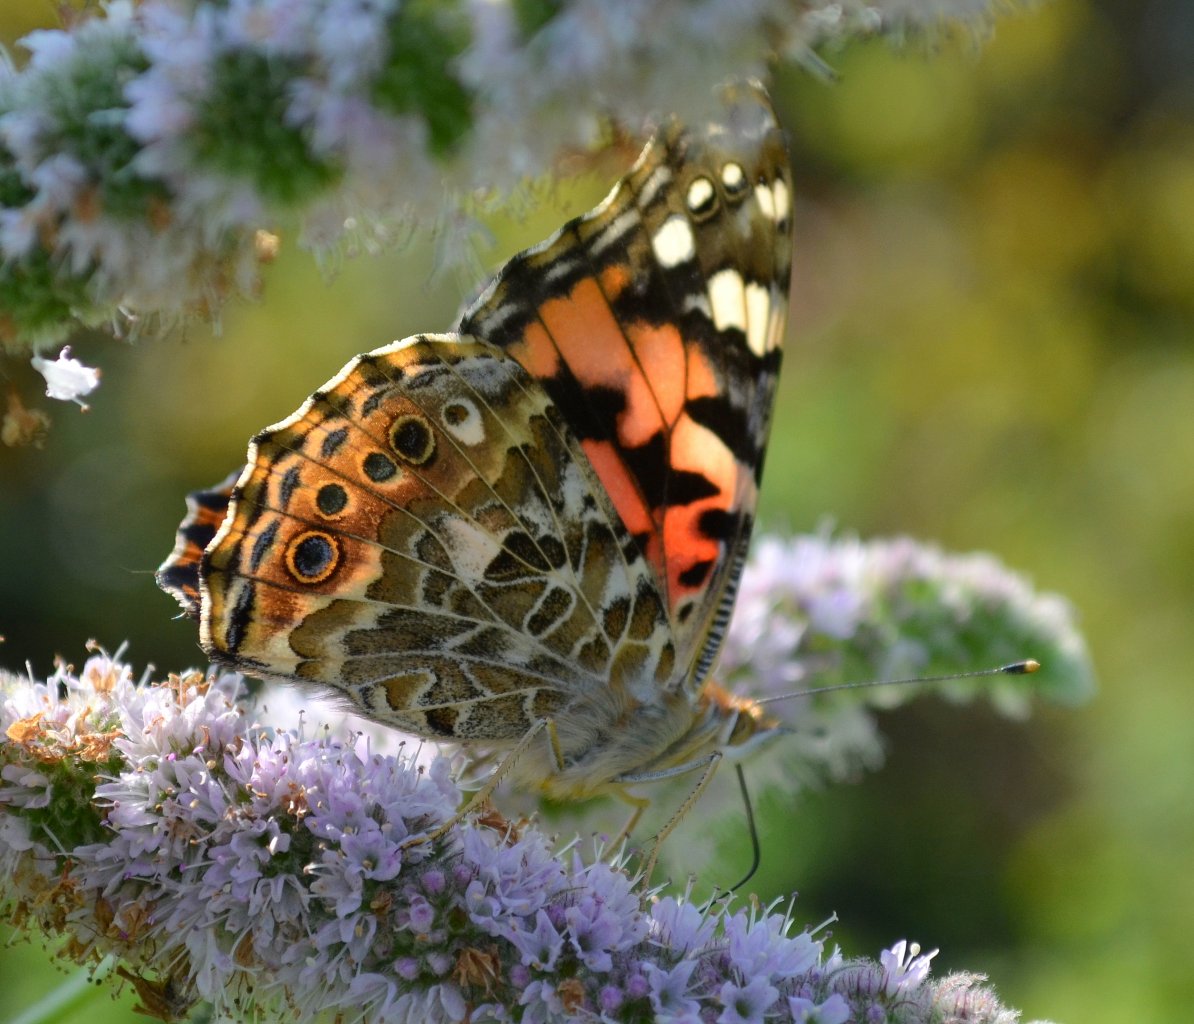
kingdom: Animalia
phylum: Arthropoda
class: Insecta
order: Lepidoptera
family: Nymphalidae
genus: Vanessa
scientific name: Vanessa cardui
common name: Painted Lady
